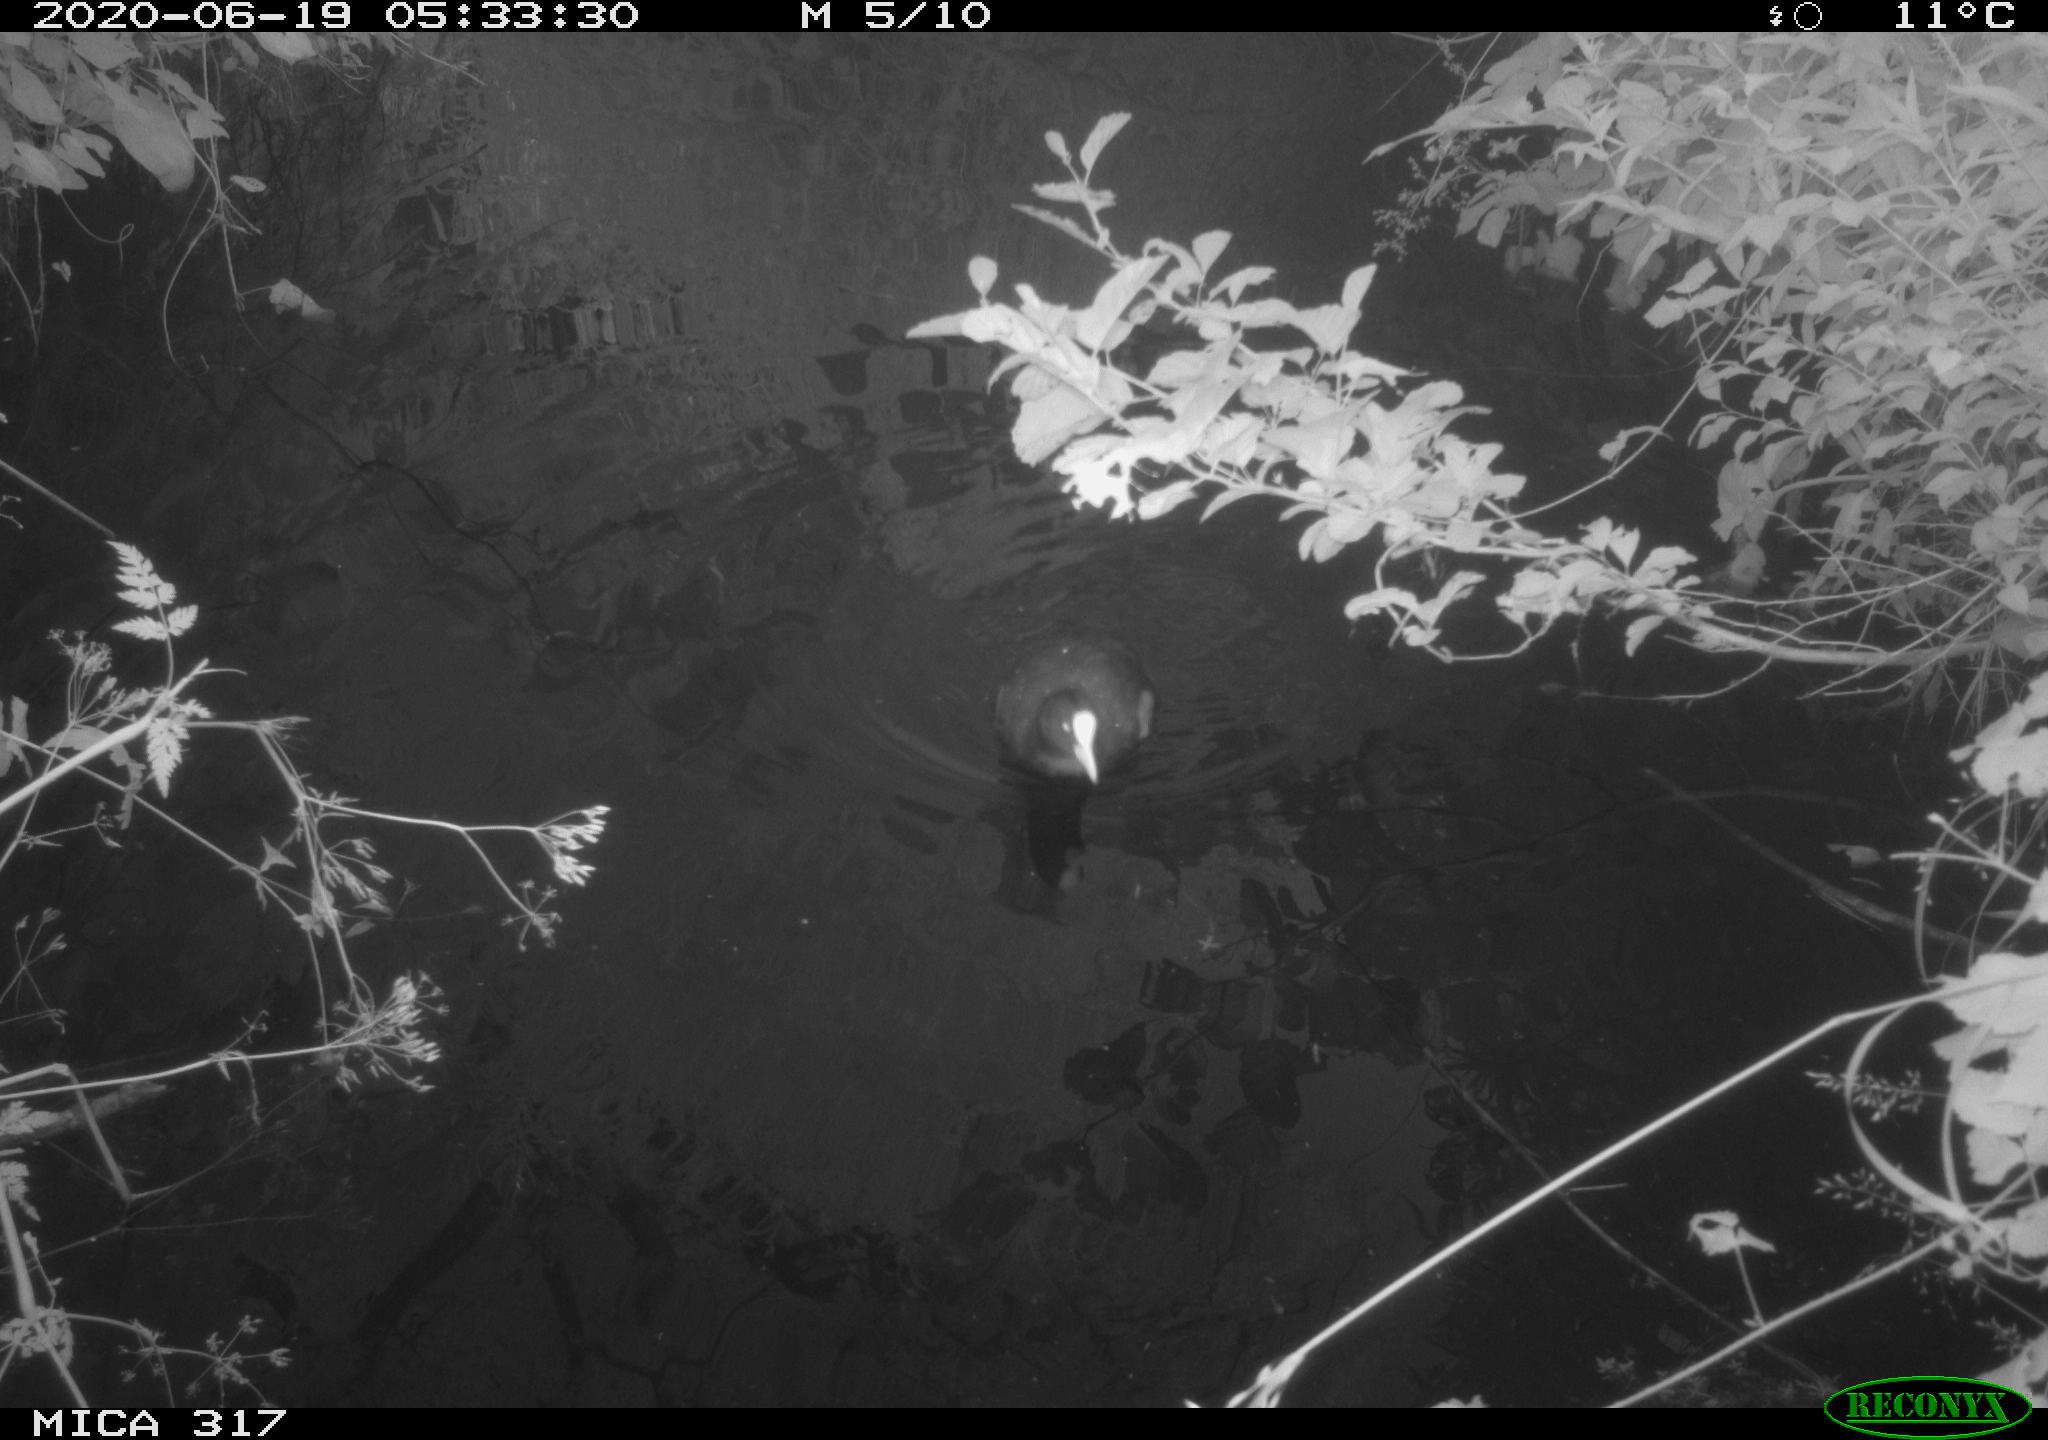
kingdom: Animalia
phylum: Chordata
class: Aves
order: Anseriformes
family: Anatidae
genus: Anas
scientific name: Anas platyrhynchos
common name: Mallard
